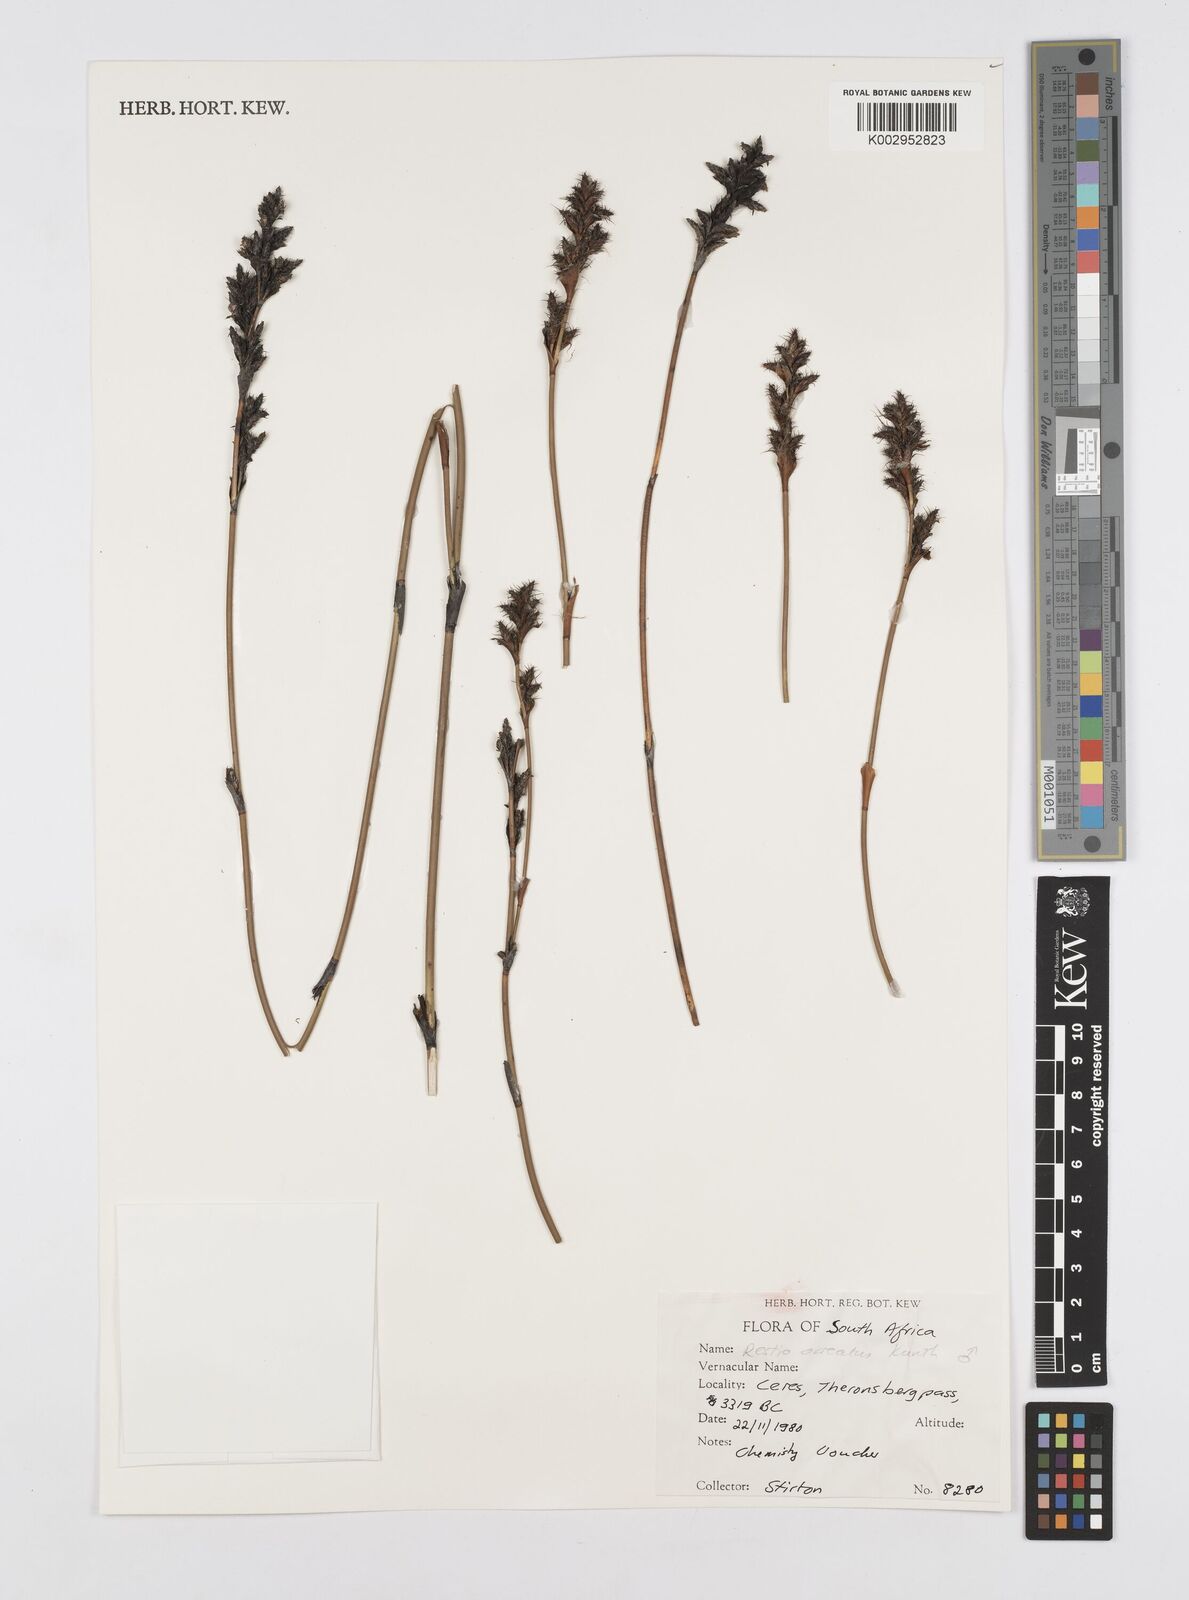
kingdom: Plantae
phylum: Tracheophyta
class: Liliopsida
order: Poales
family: Restionaceae
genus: Restio
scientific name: Restio ocreatus
